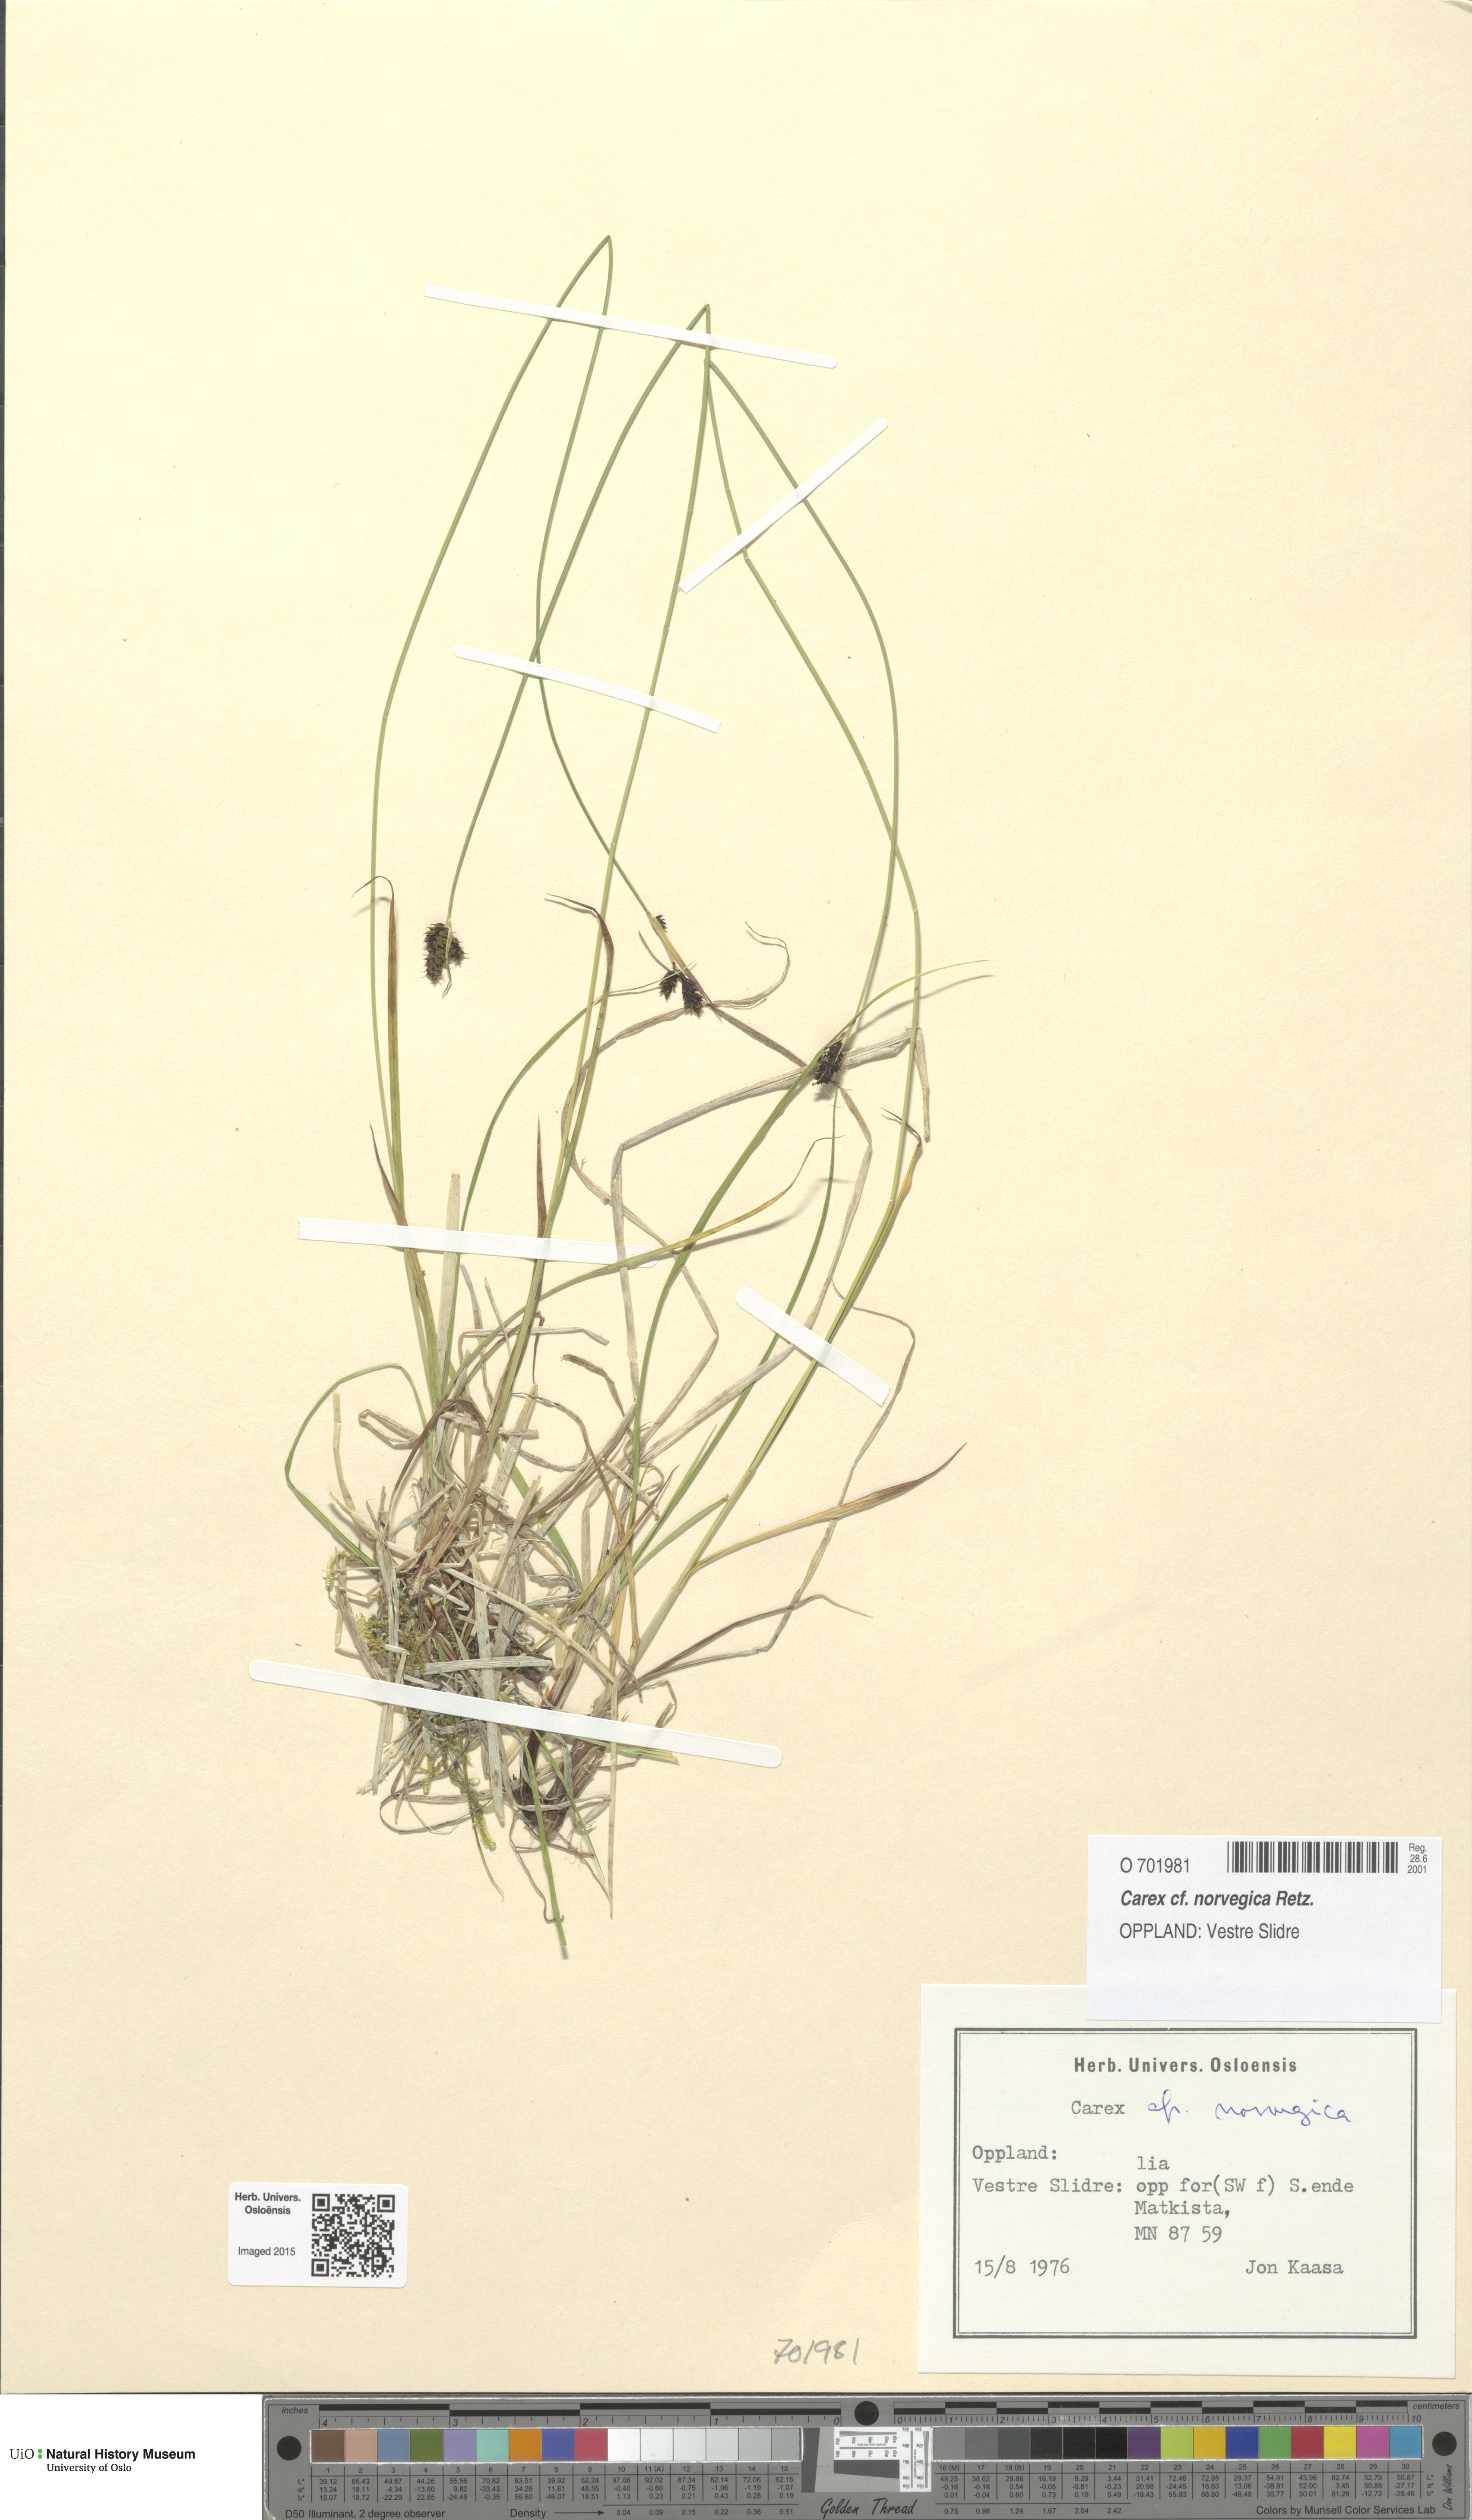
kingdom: Plantae
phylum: Tracheophyta
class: Liliopsida
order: Poales
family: Cyperaceae
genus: Carex
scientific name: Carex norvegica
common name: Close-headed alpine-sedge
